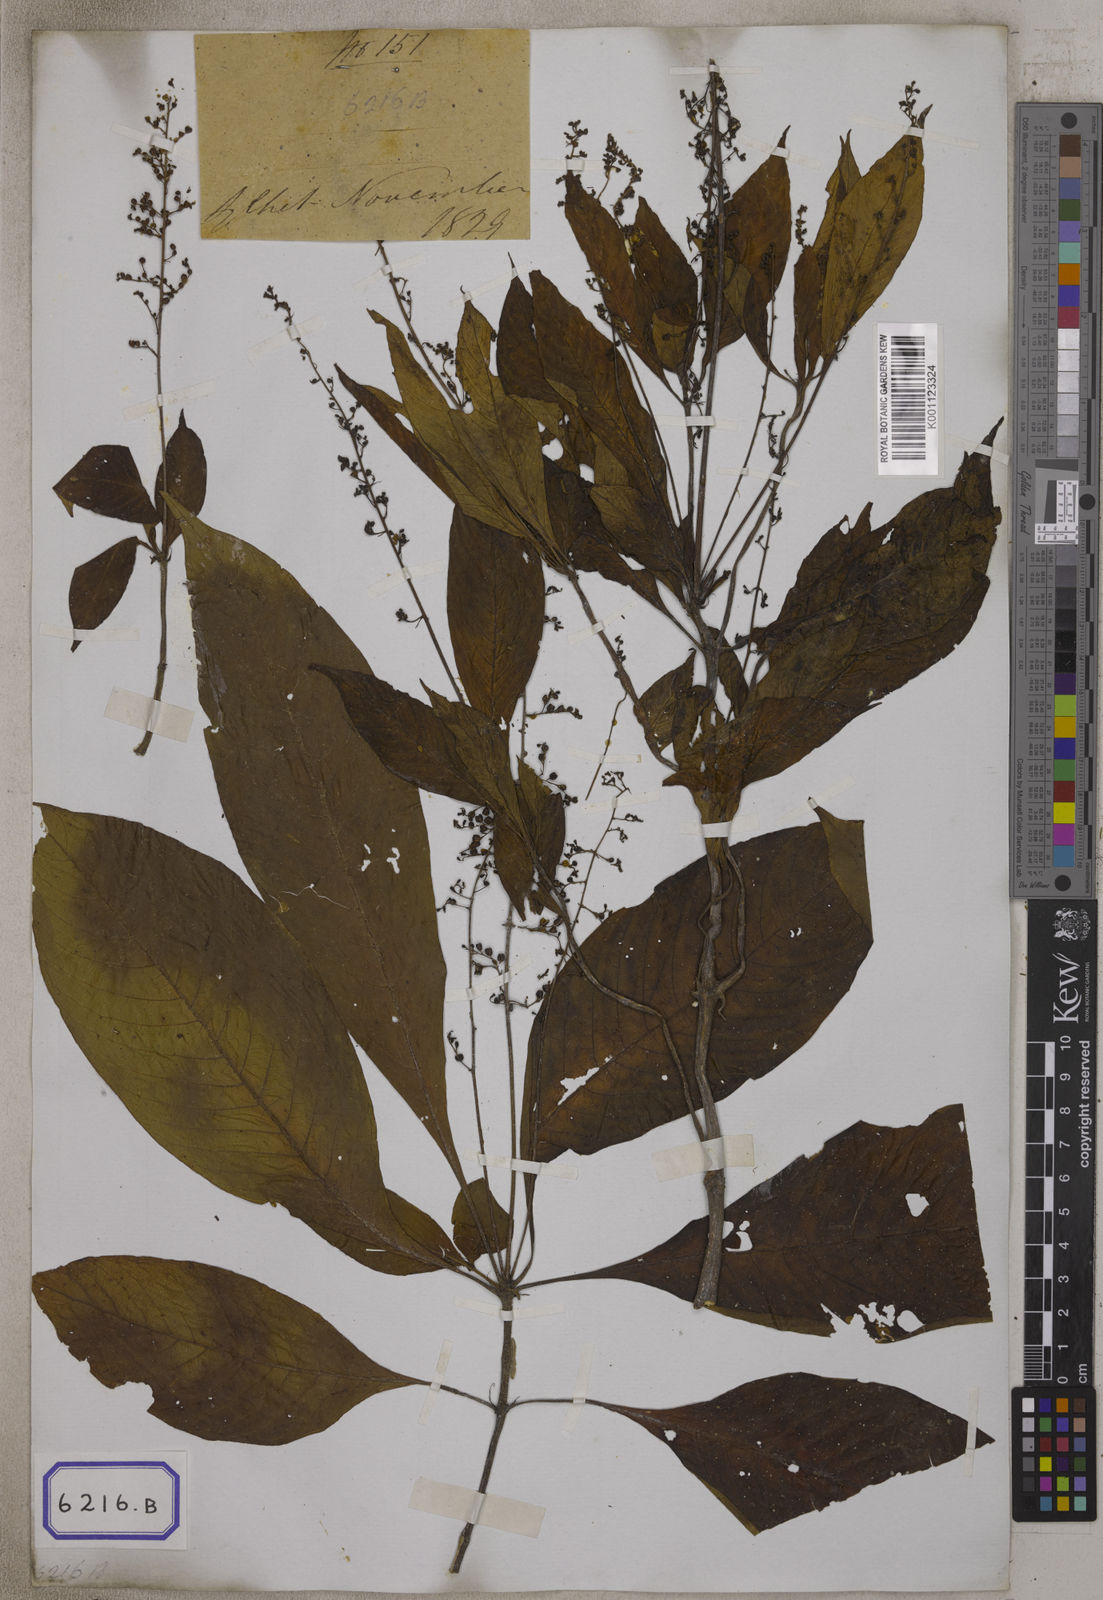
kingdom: Plantae
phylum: Tracheophyta
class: Magnoliopsida
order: Gentianales
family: Rubiaceae
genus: Ophiorrhiza
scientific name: Ophiorrhiza
